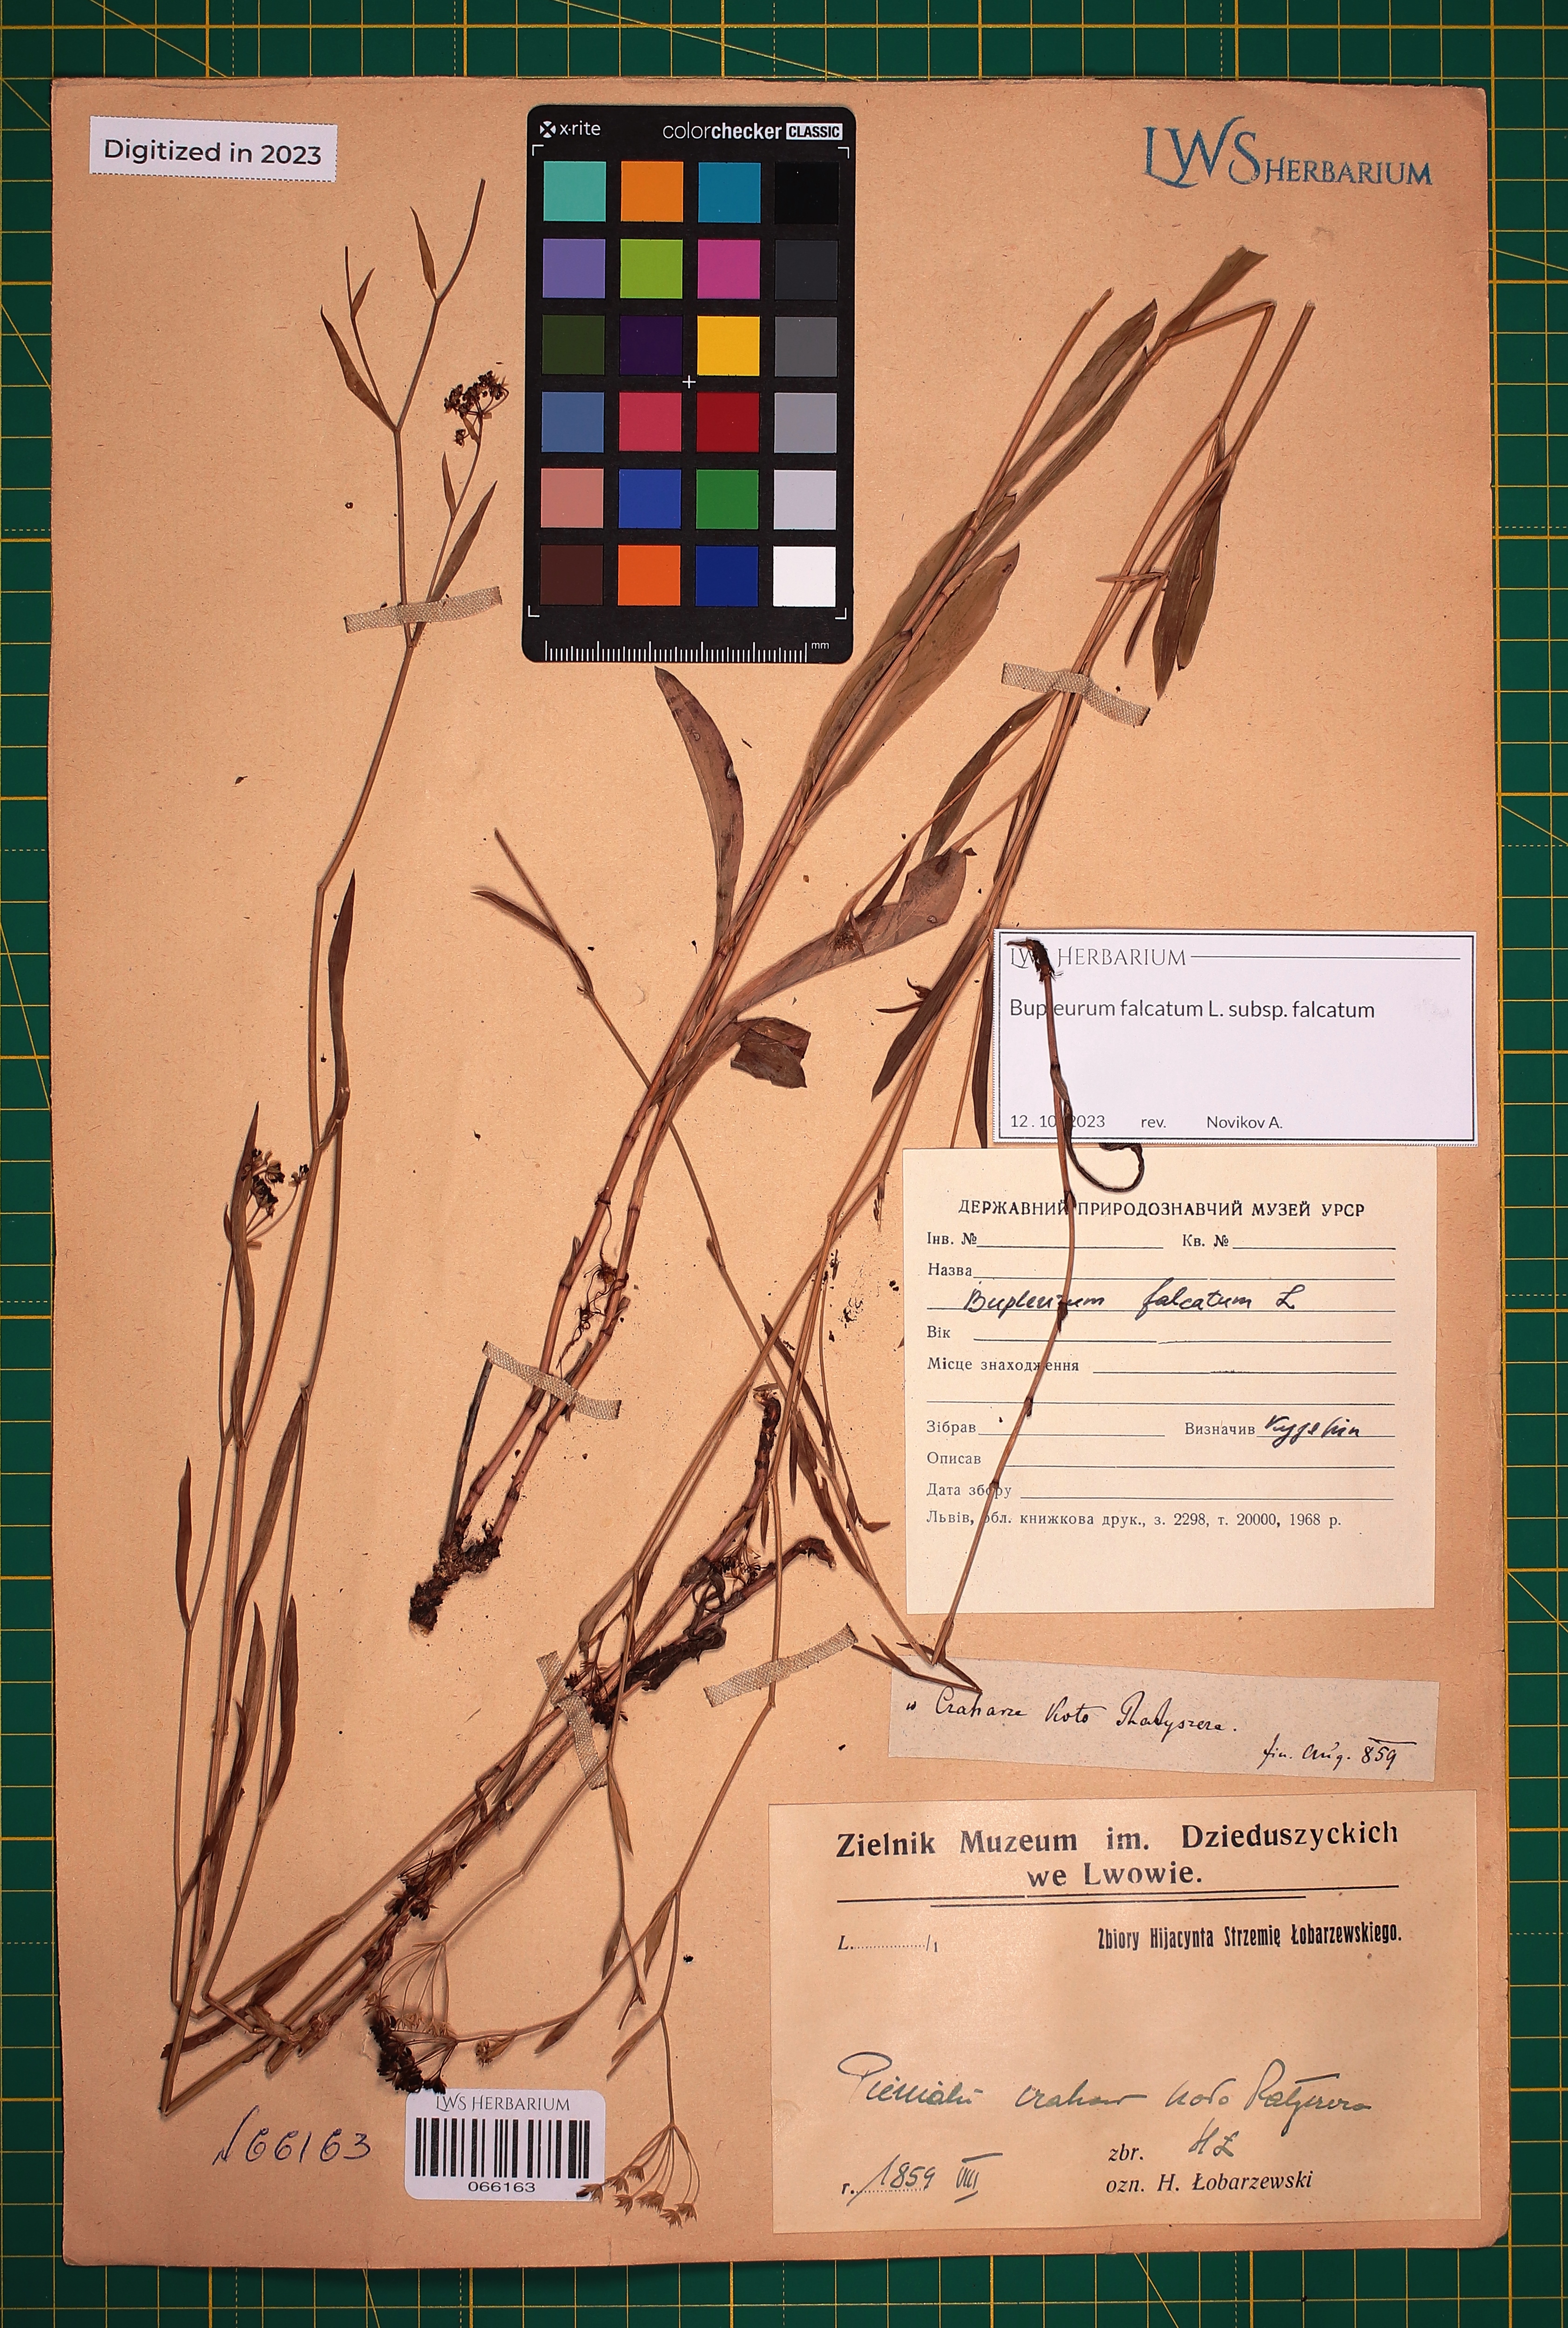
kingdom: Plantae
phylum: Tracheophyta
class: Magnoliopsida
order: Apiales
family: Apiaceae
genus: Bupleurum
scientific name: Bupleurum falcatum
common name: Sickle-leaved hare's-ear
